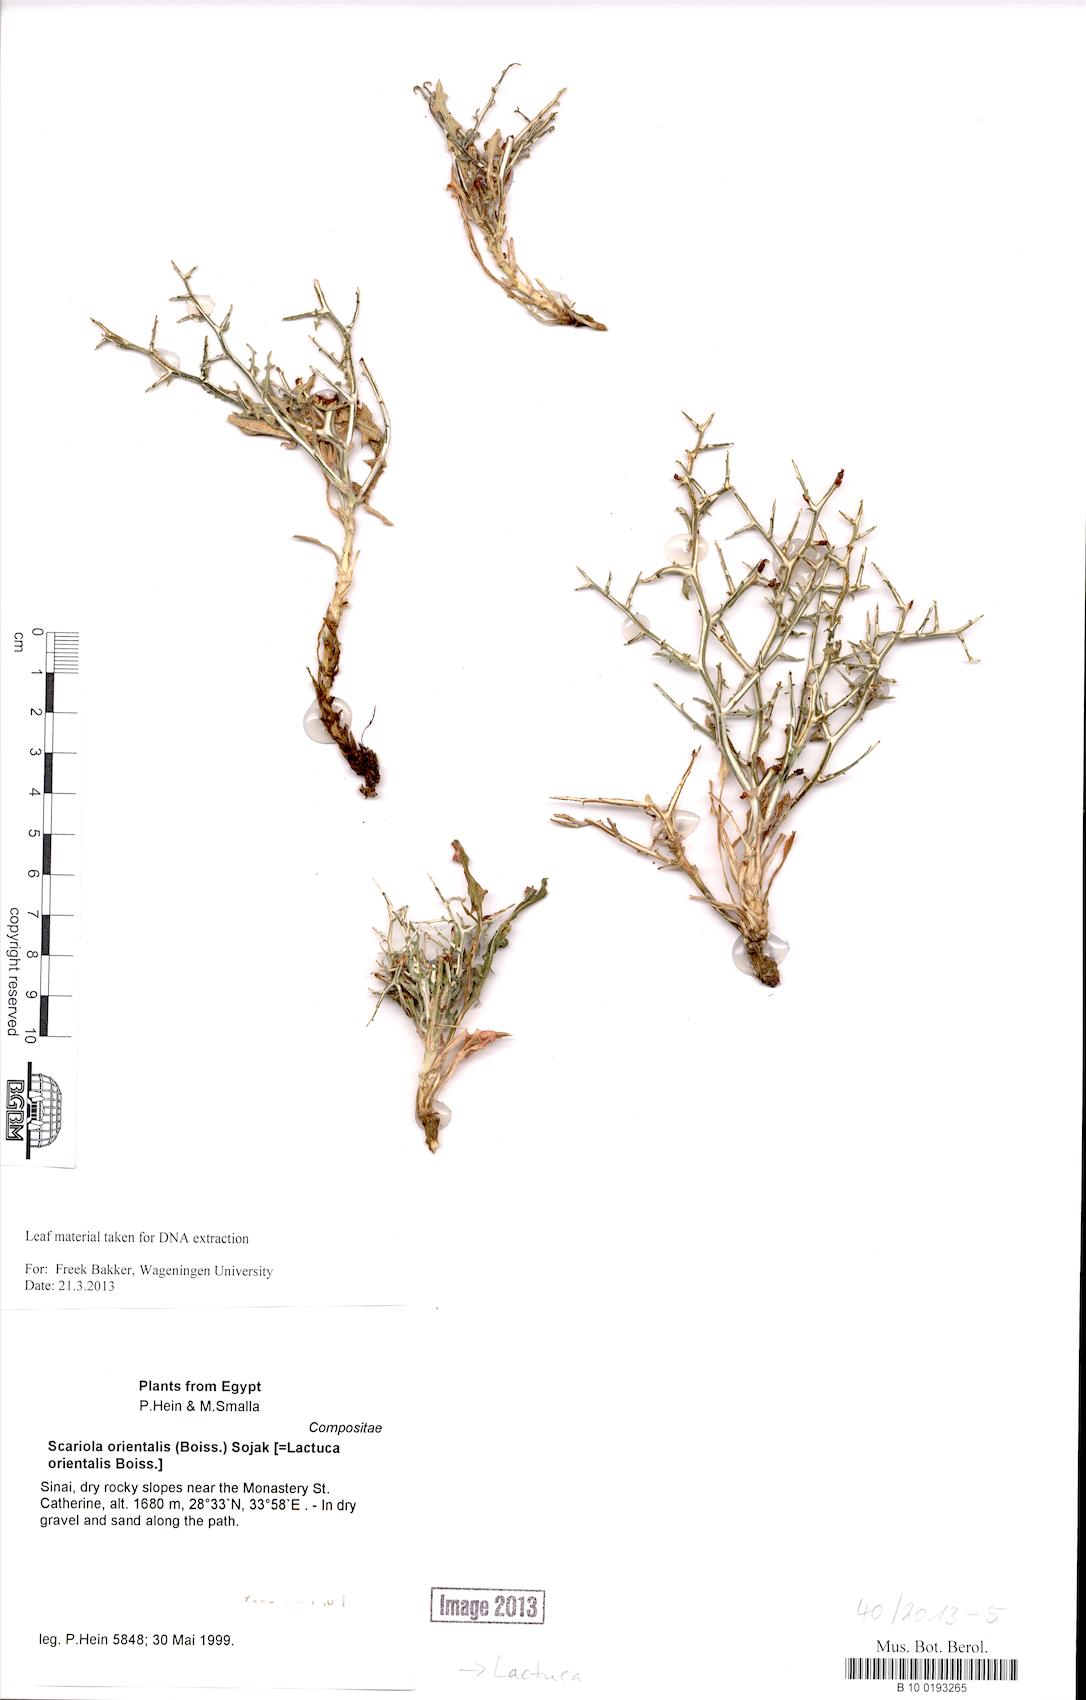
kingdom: Plantae
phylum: Tracheophyta
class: Magnoliopsida
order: Asterales
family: Asteraceae
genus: Lactuca
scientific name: Lactuca orientalis
